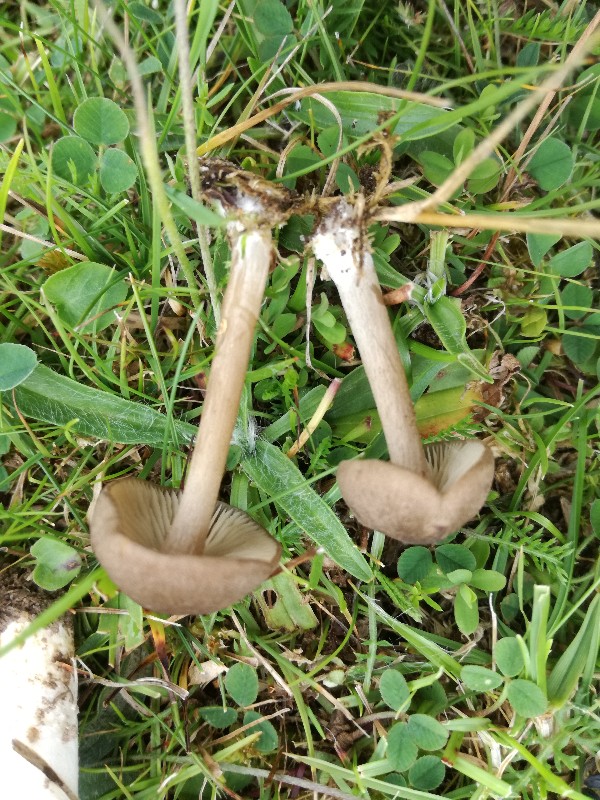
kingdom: Fungi
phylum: Basidiomycota
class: Agaricomycetes
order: Agaricales
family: Entolomataceae
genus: Entoloma
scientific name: Entoloma griseocyaneum
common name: gråblå rødblad
